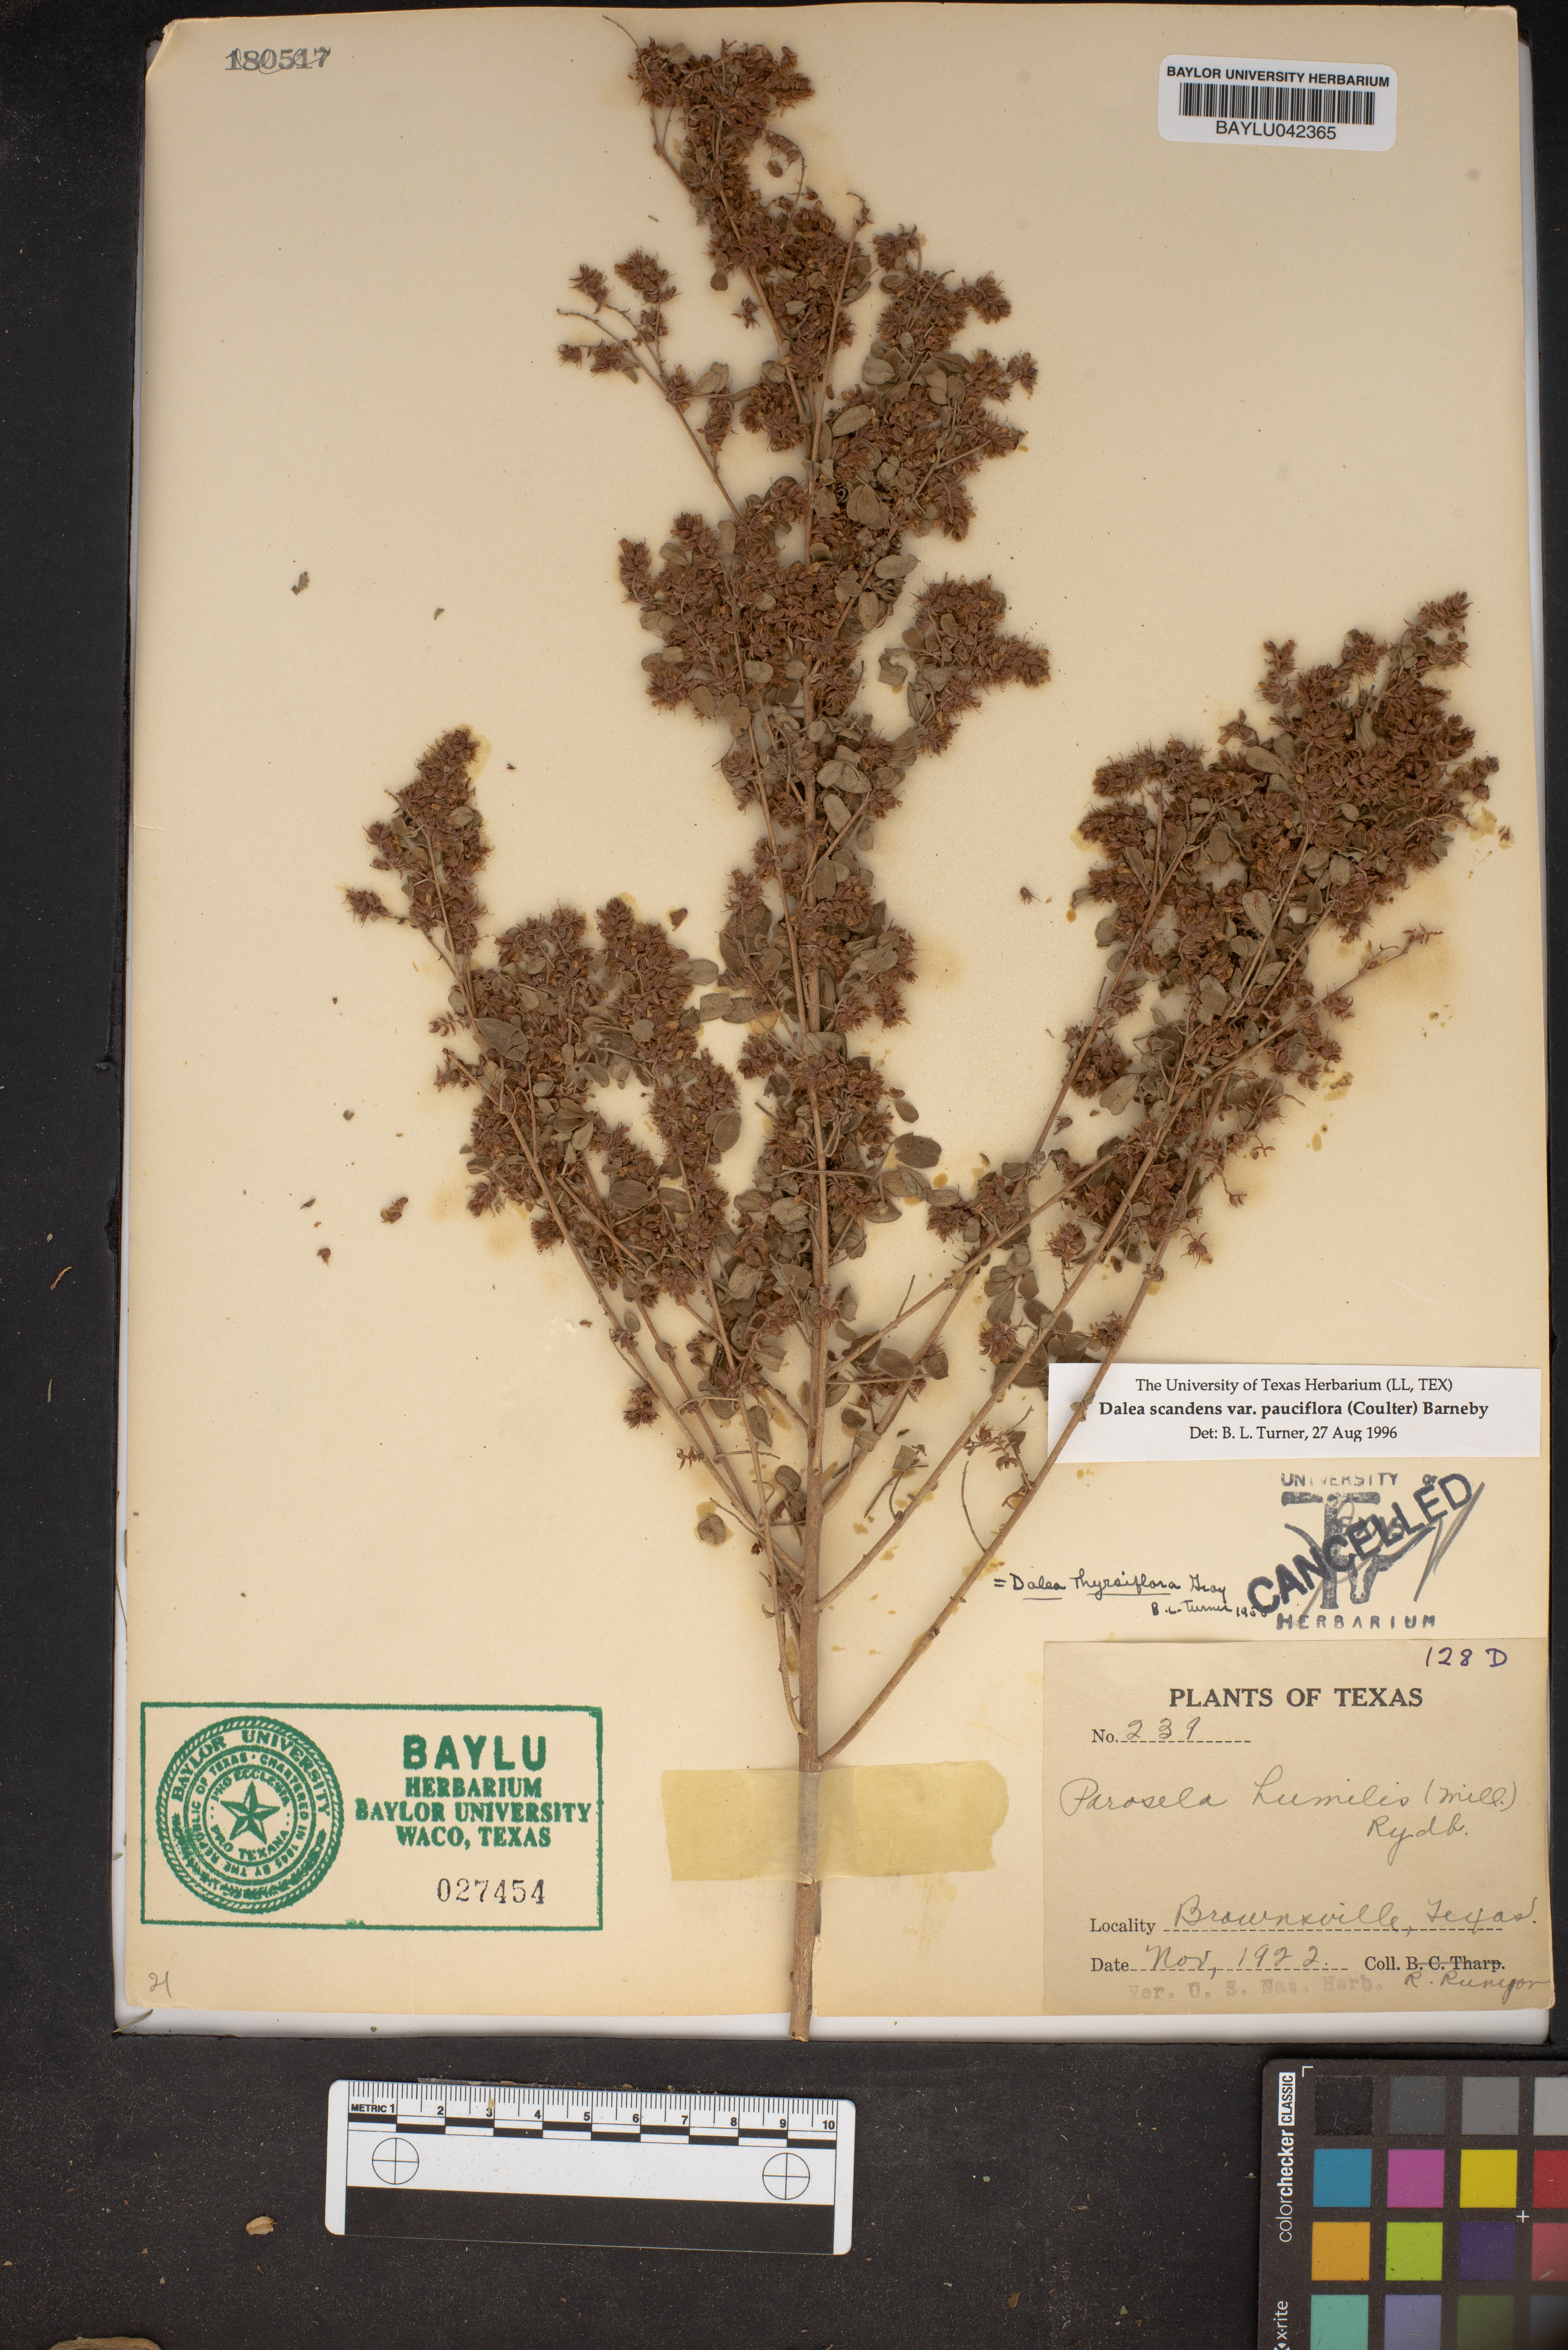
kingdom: Plantae
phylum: Tracheophyta
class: Magnoliopsida
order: Fabales
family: Fabaceae
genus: Dalea
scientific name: Dalea scandens
